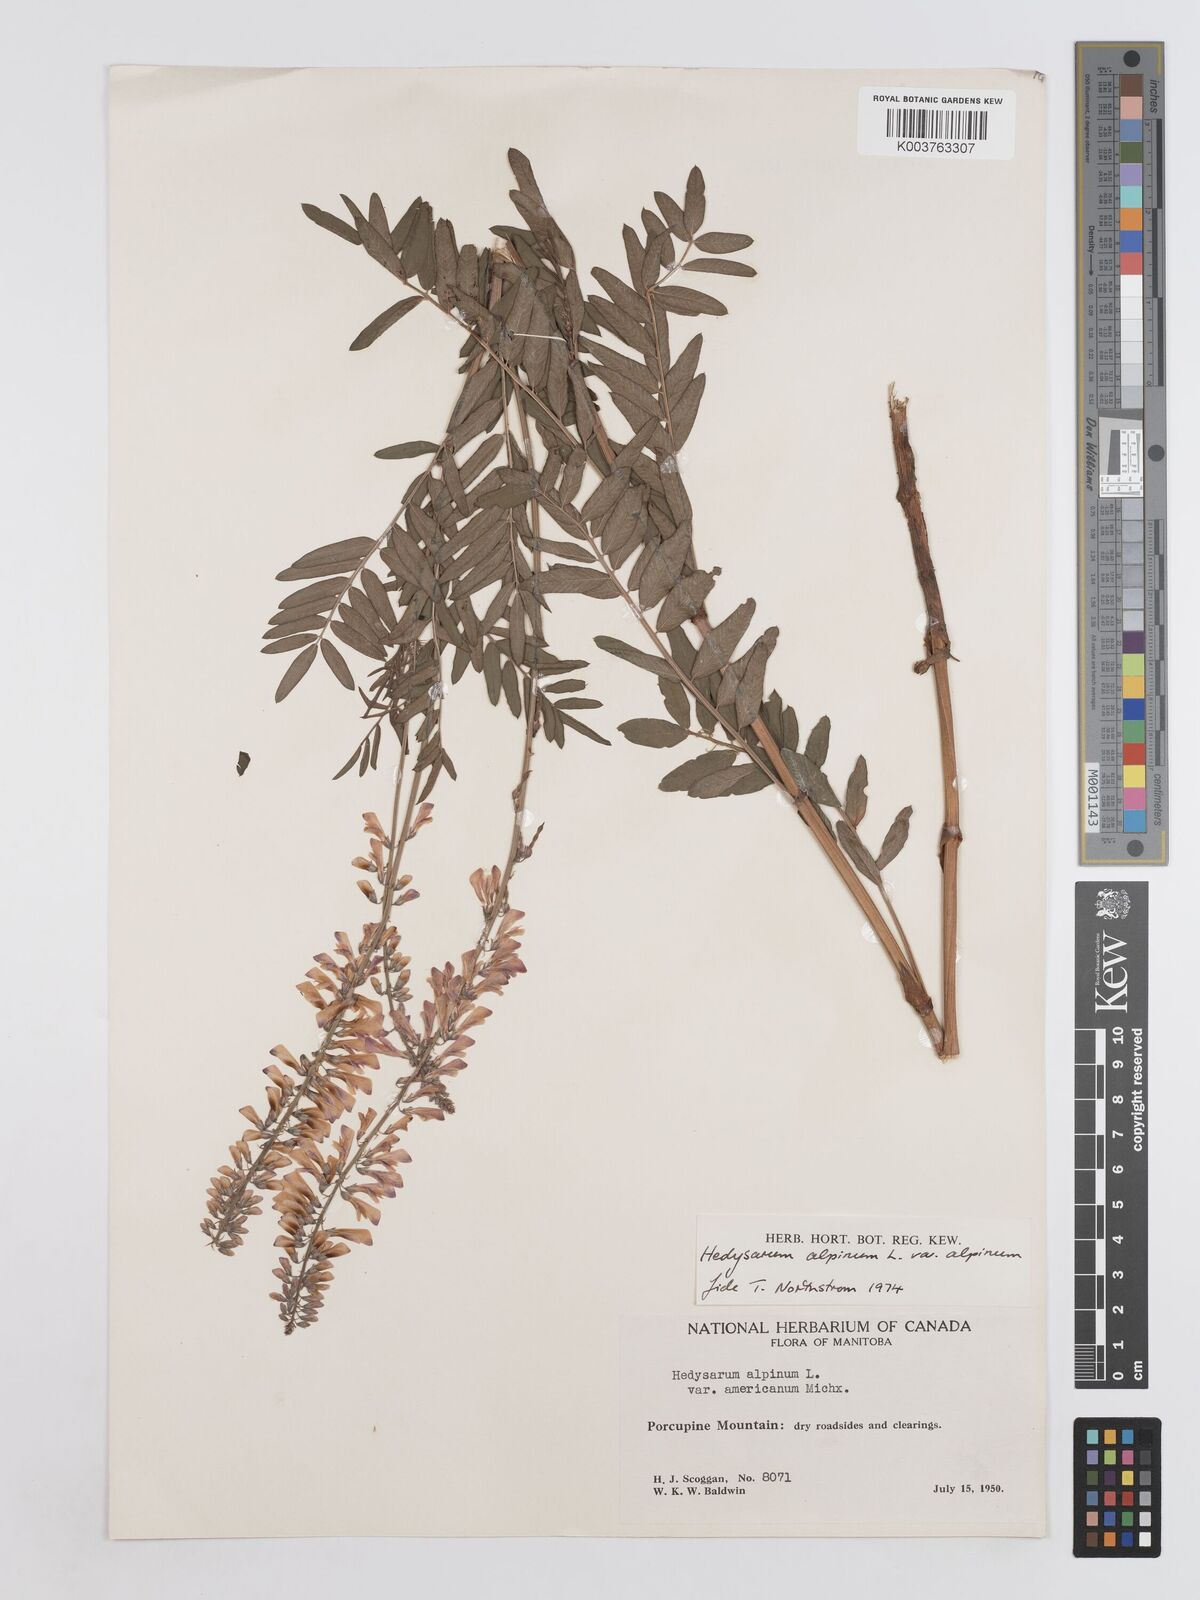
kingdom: Plantae
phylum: Tracheophyta
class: Magnoliopsida
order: Fabales
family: Fabaceae
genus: Hedysarum
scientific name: Hedysarum alpinum
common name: Alpine sweet-vetch
